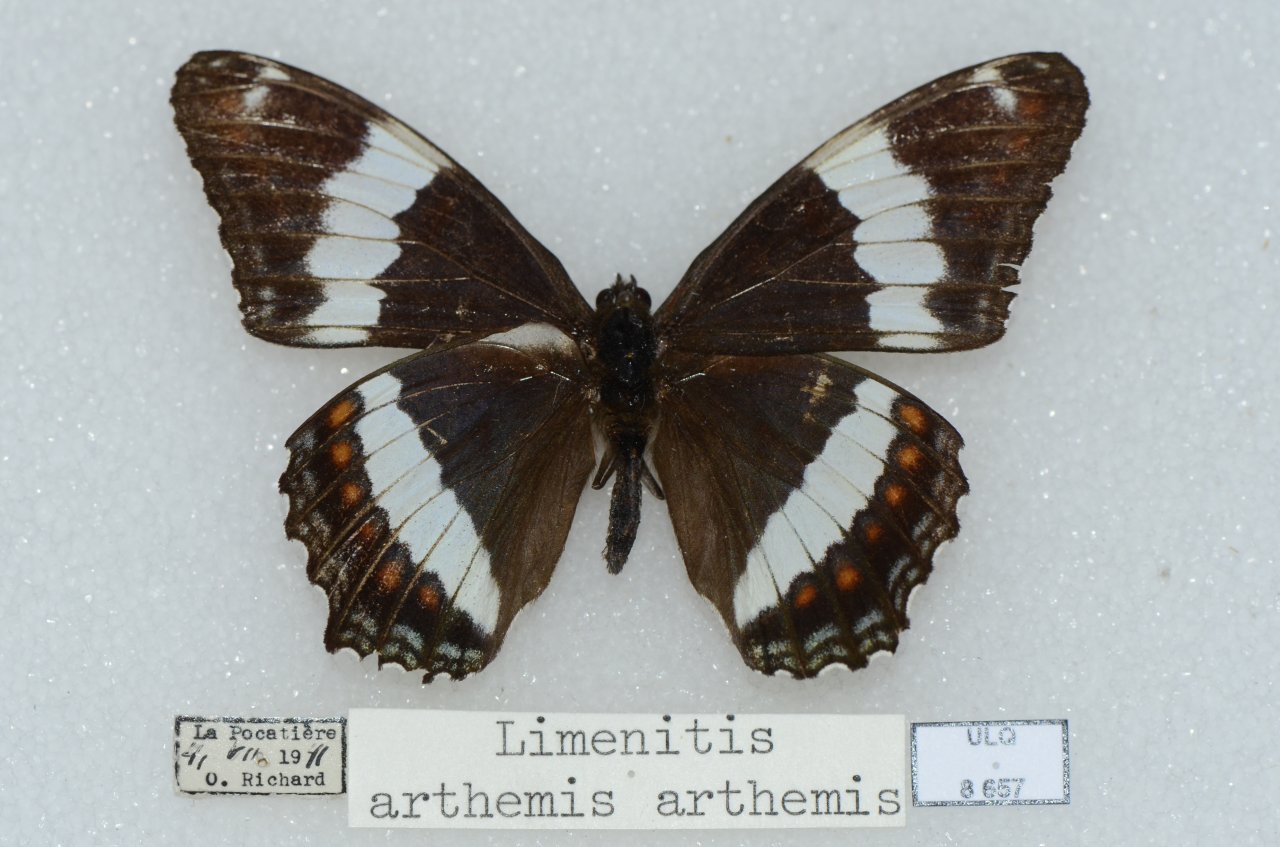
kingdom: Animalia
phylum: Arthropoda
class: Insecta
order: Lepidoptera
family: Nymphalidae
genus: Limenitis
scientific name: Limenitis arthemis
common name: Red-spotted Admiral
